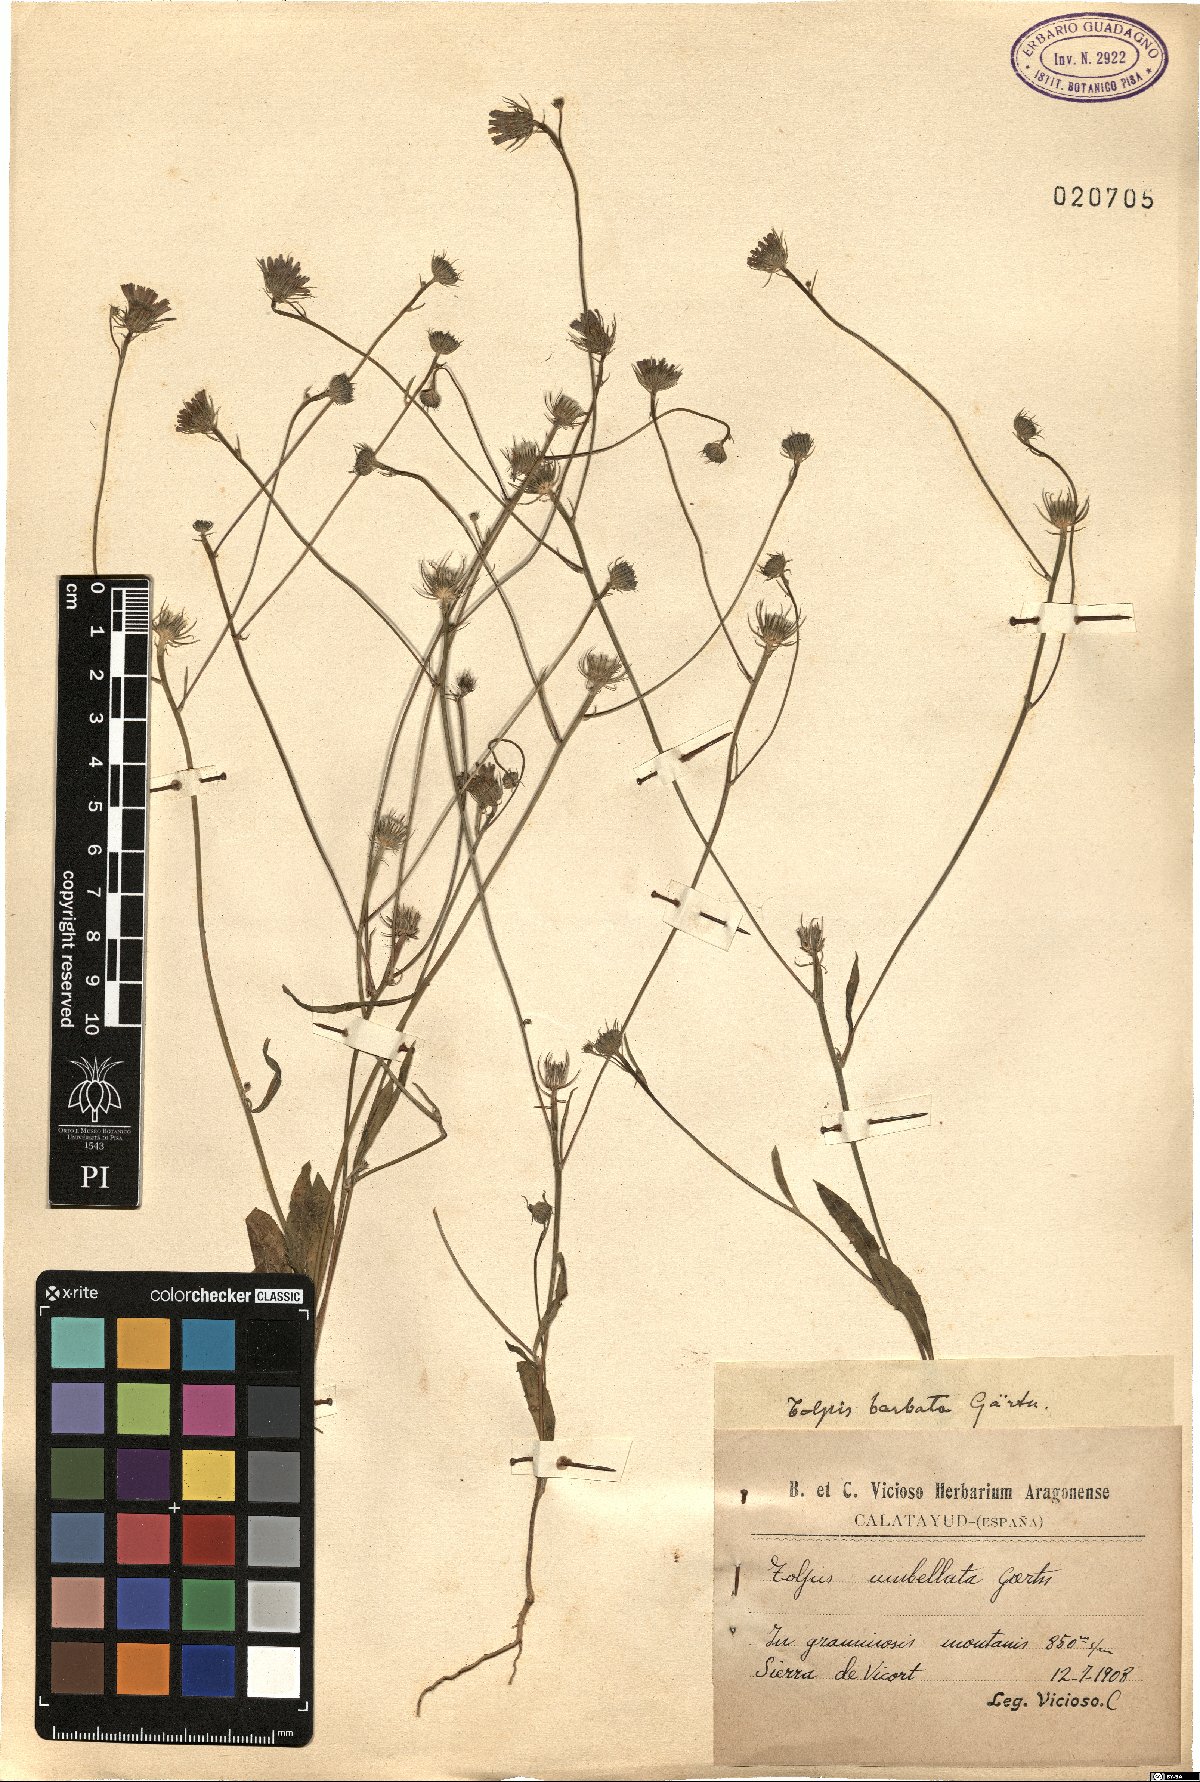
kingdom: Plantae
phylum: Tracheophyta
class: Magnoliopsida
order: Asterales
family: Asteraceae
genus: Tolpis
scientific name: Tolpis barbata
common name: Yellow hawkweed
